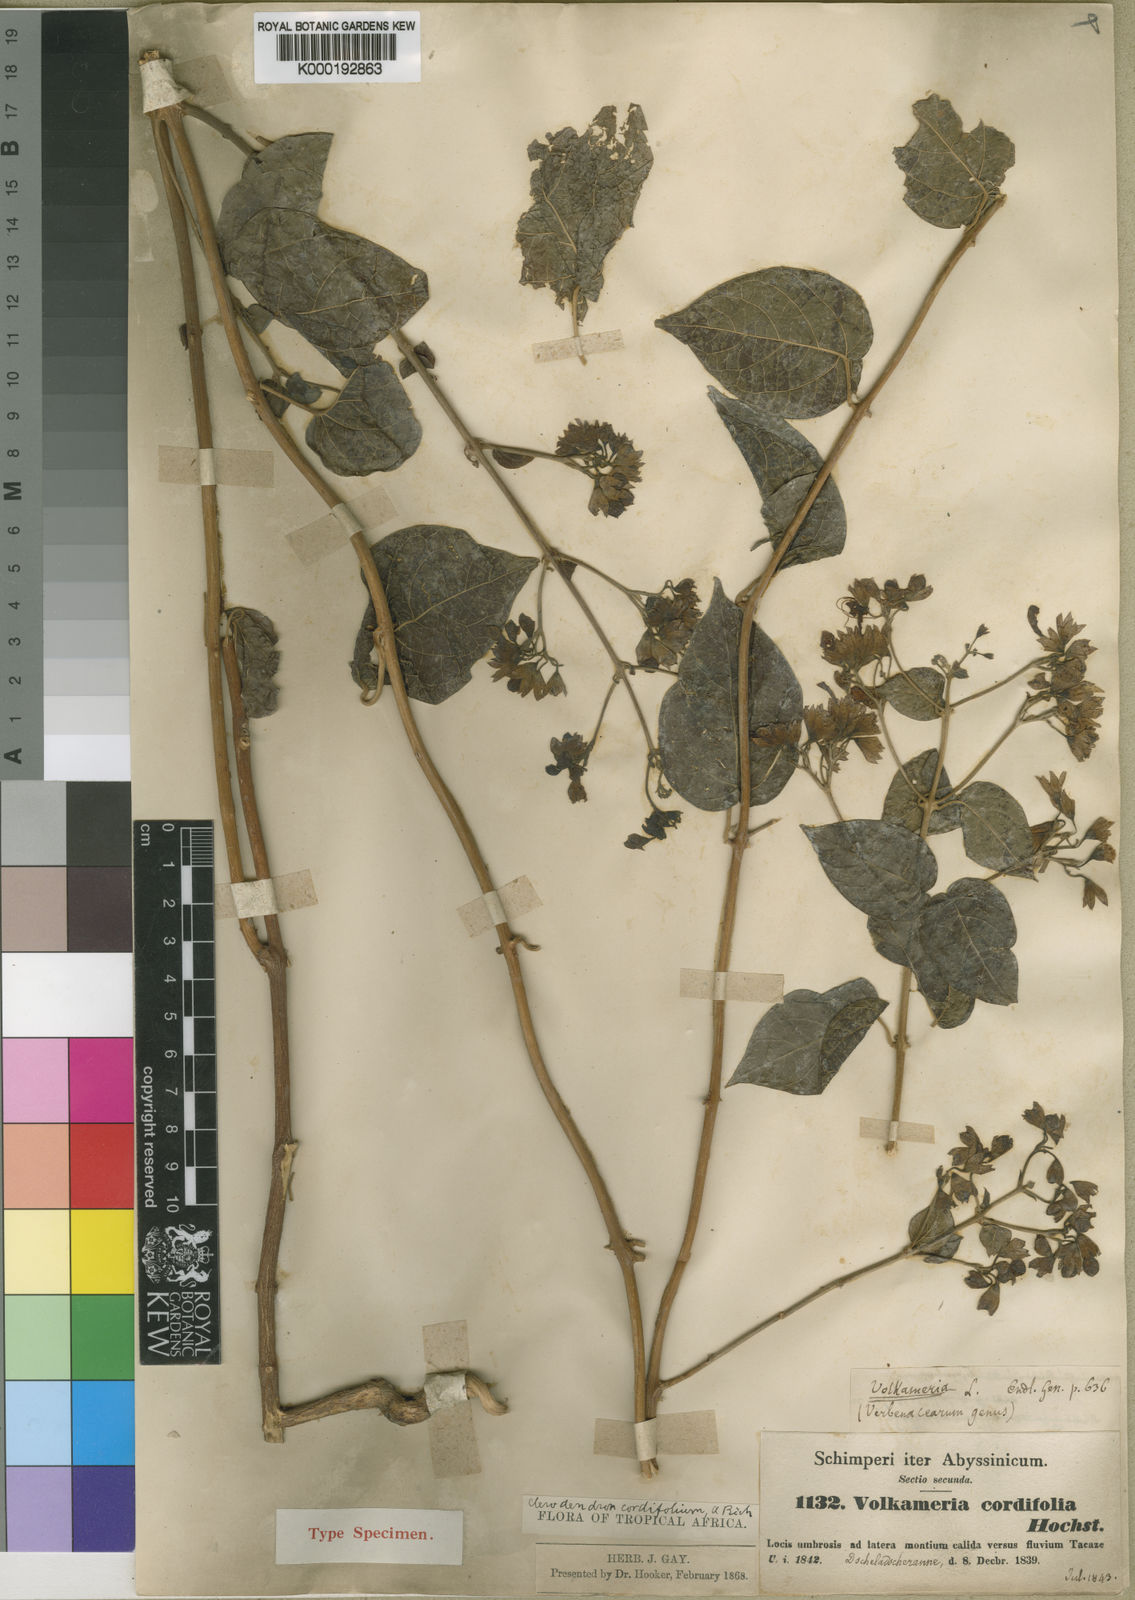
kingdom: Plantae
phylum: Tracheophyta
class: Magnoliopsida
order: Lamiales
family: Lamiaceae
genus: Clerodendrum
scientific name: Clerodendrum umbellatum
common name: Umbel clerodendrum
